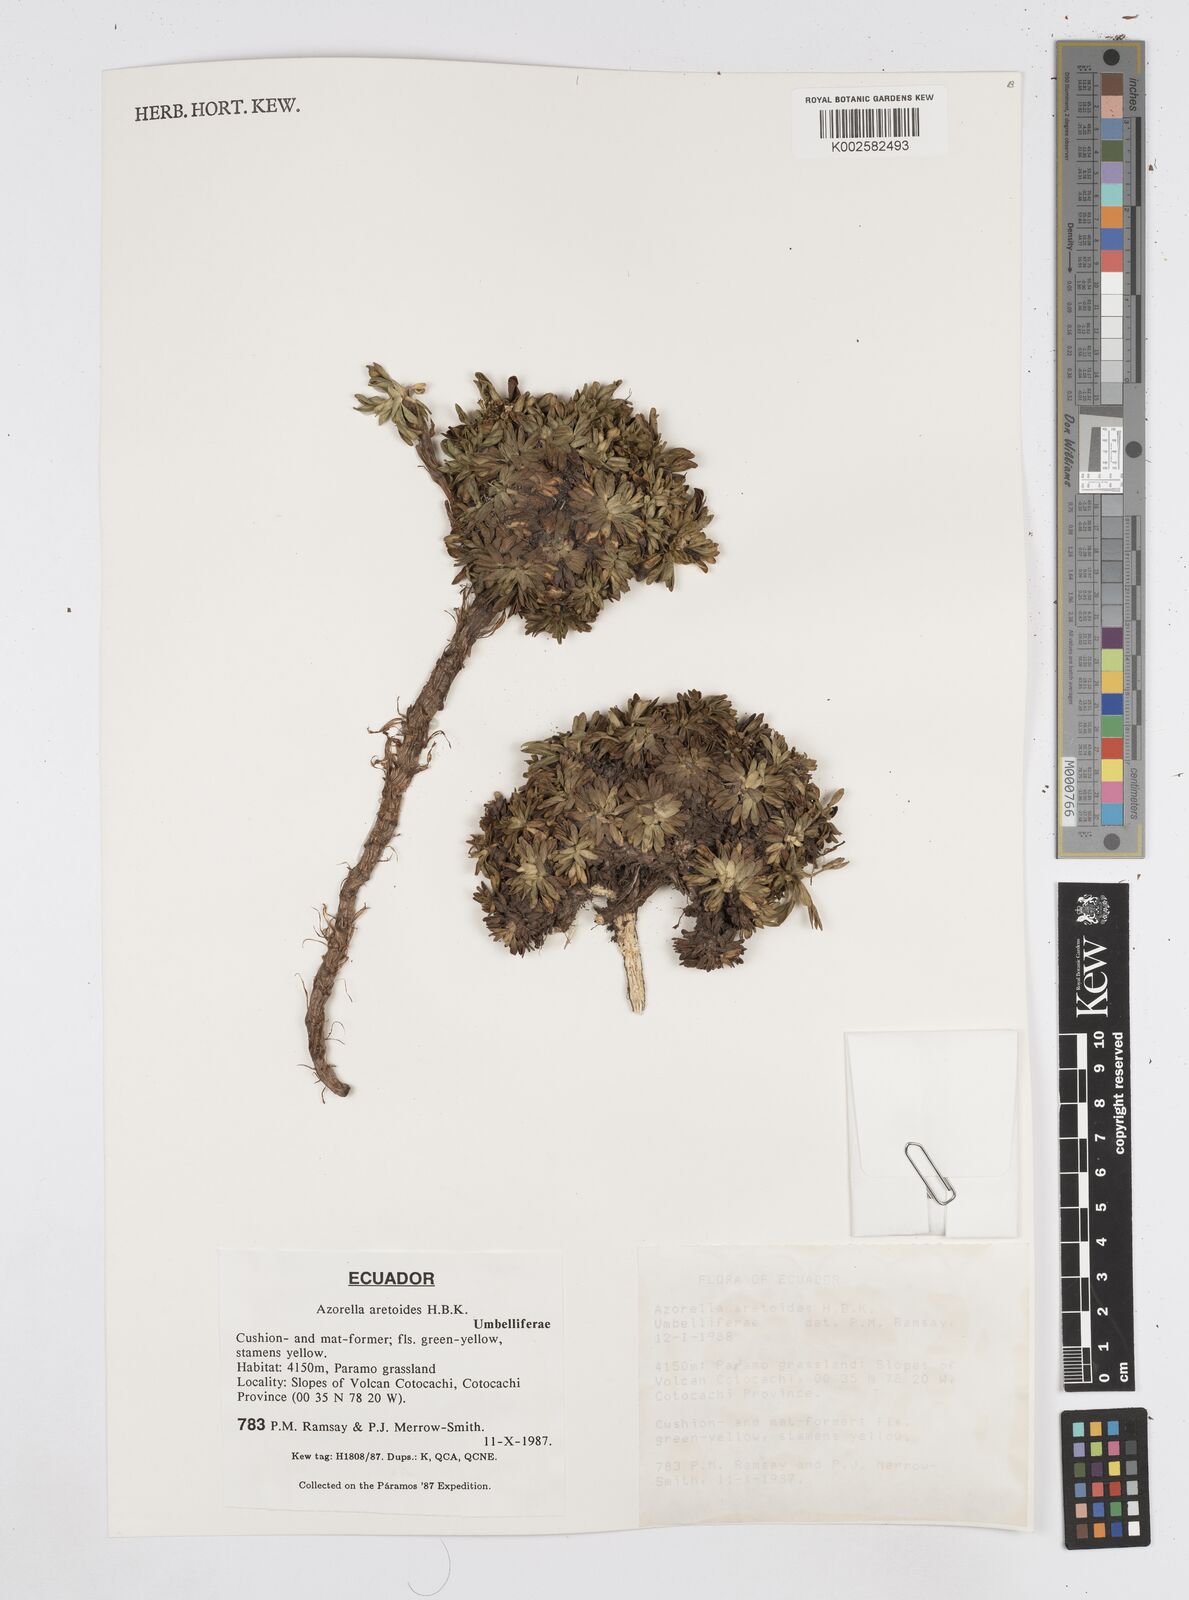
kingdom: Plantae
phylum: Tracheophyta
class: Magnoliopsida
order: Apiales
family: Apiaceae
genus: Azorella
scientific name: Azorella aretioides
